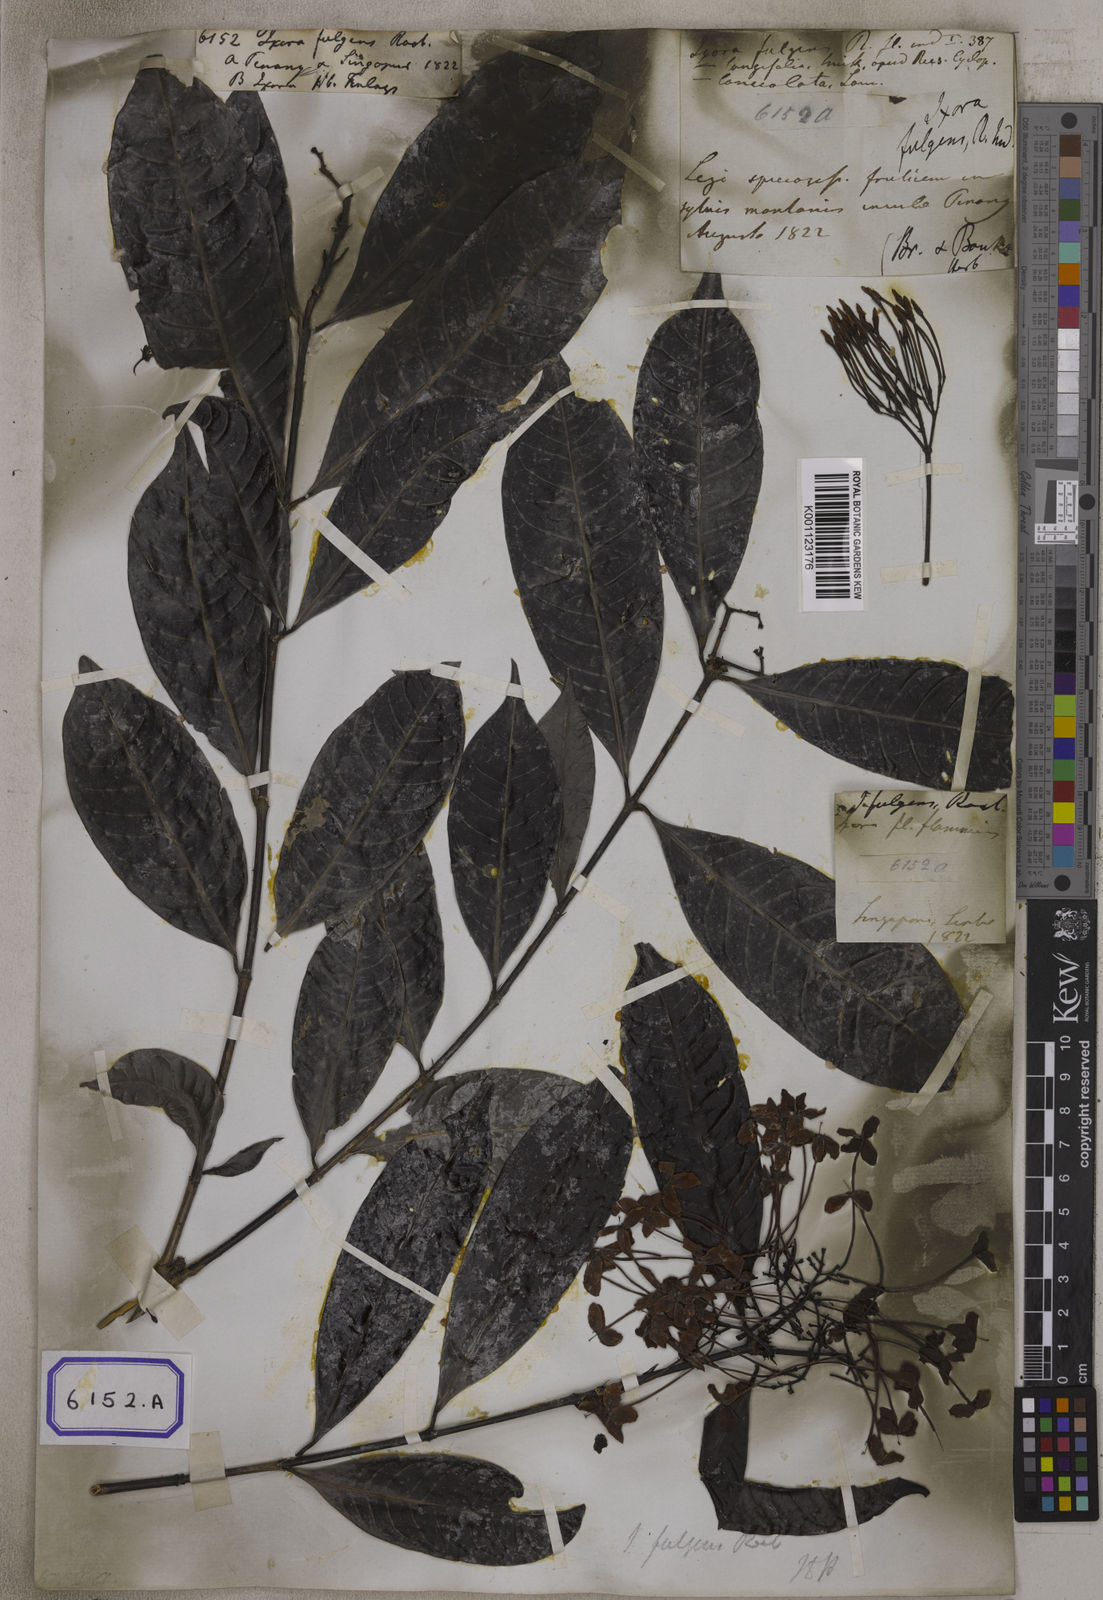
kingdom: Plantae
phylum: Tracheophyta
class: Magnoliopsida
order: Gentianales
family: Rubiaceae
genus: Ixora
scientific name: Ixora longifolia
